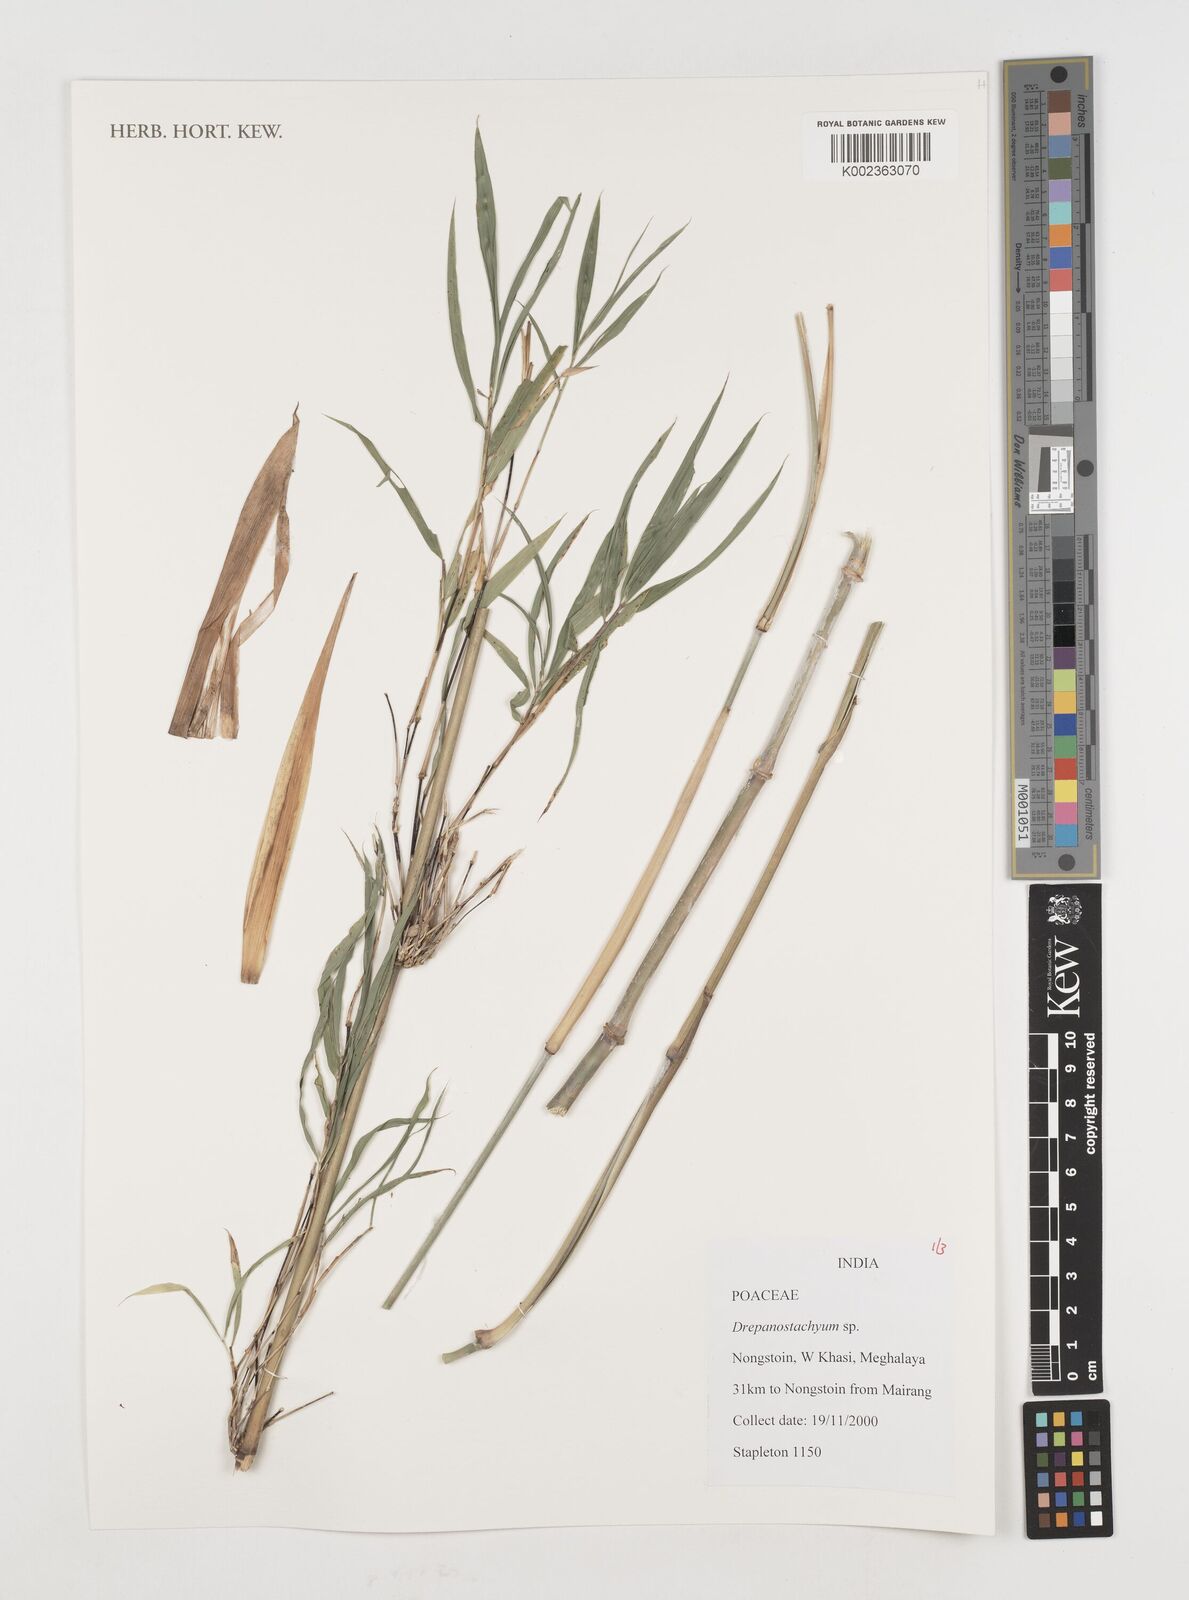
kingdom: Plantae
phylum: Tracheophyta
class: Liliopsida
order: Poales
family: Poaceae
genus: Drepanostachyum
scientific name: Drepanostachyum
